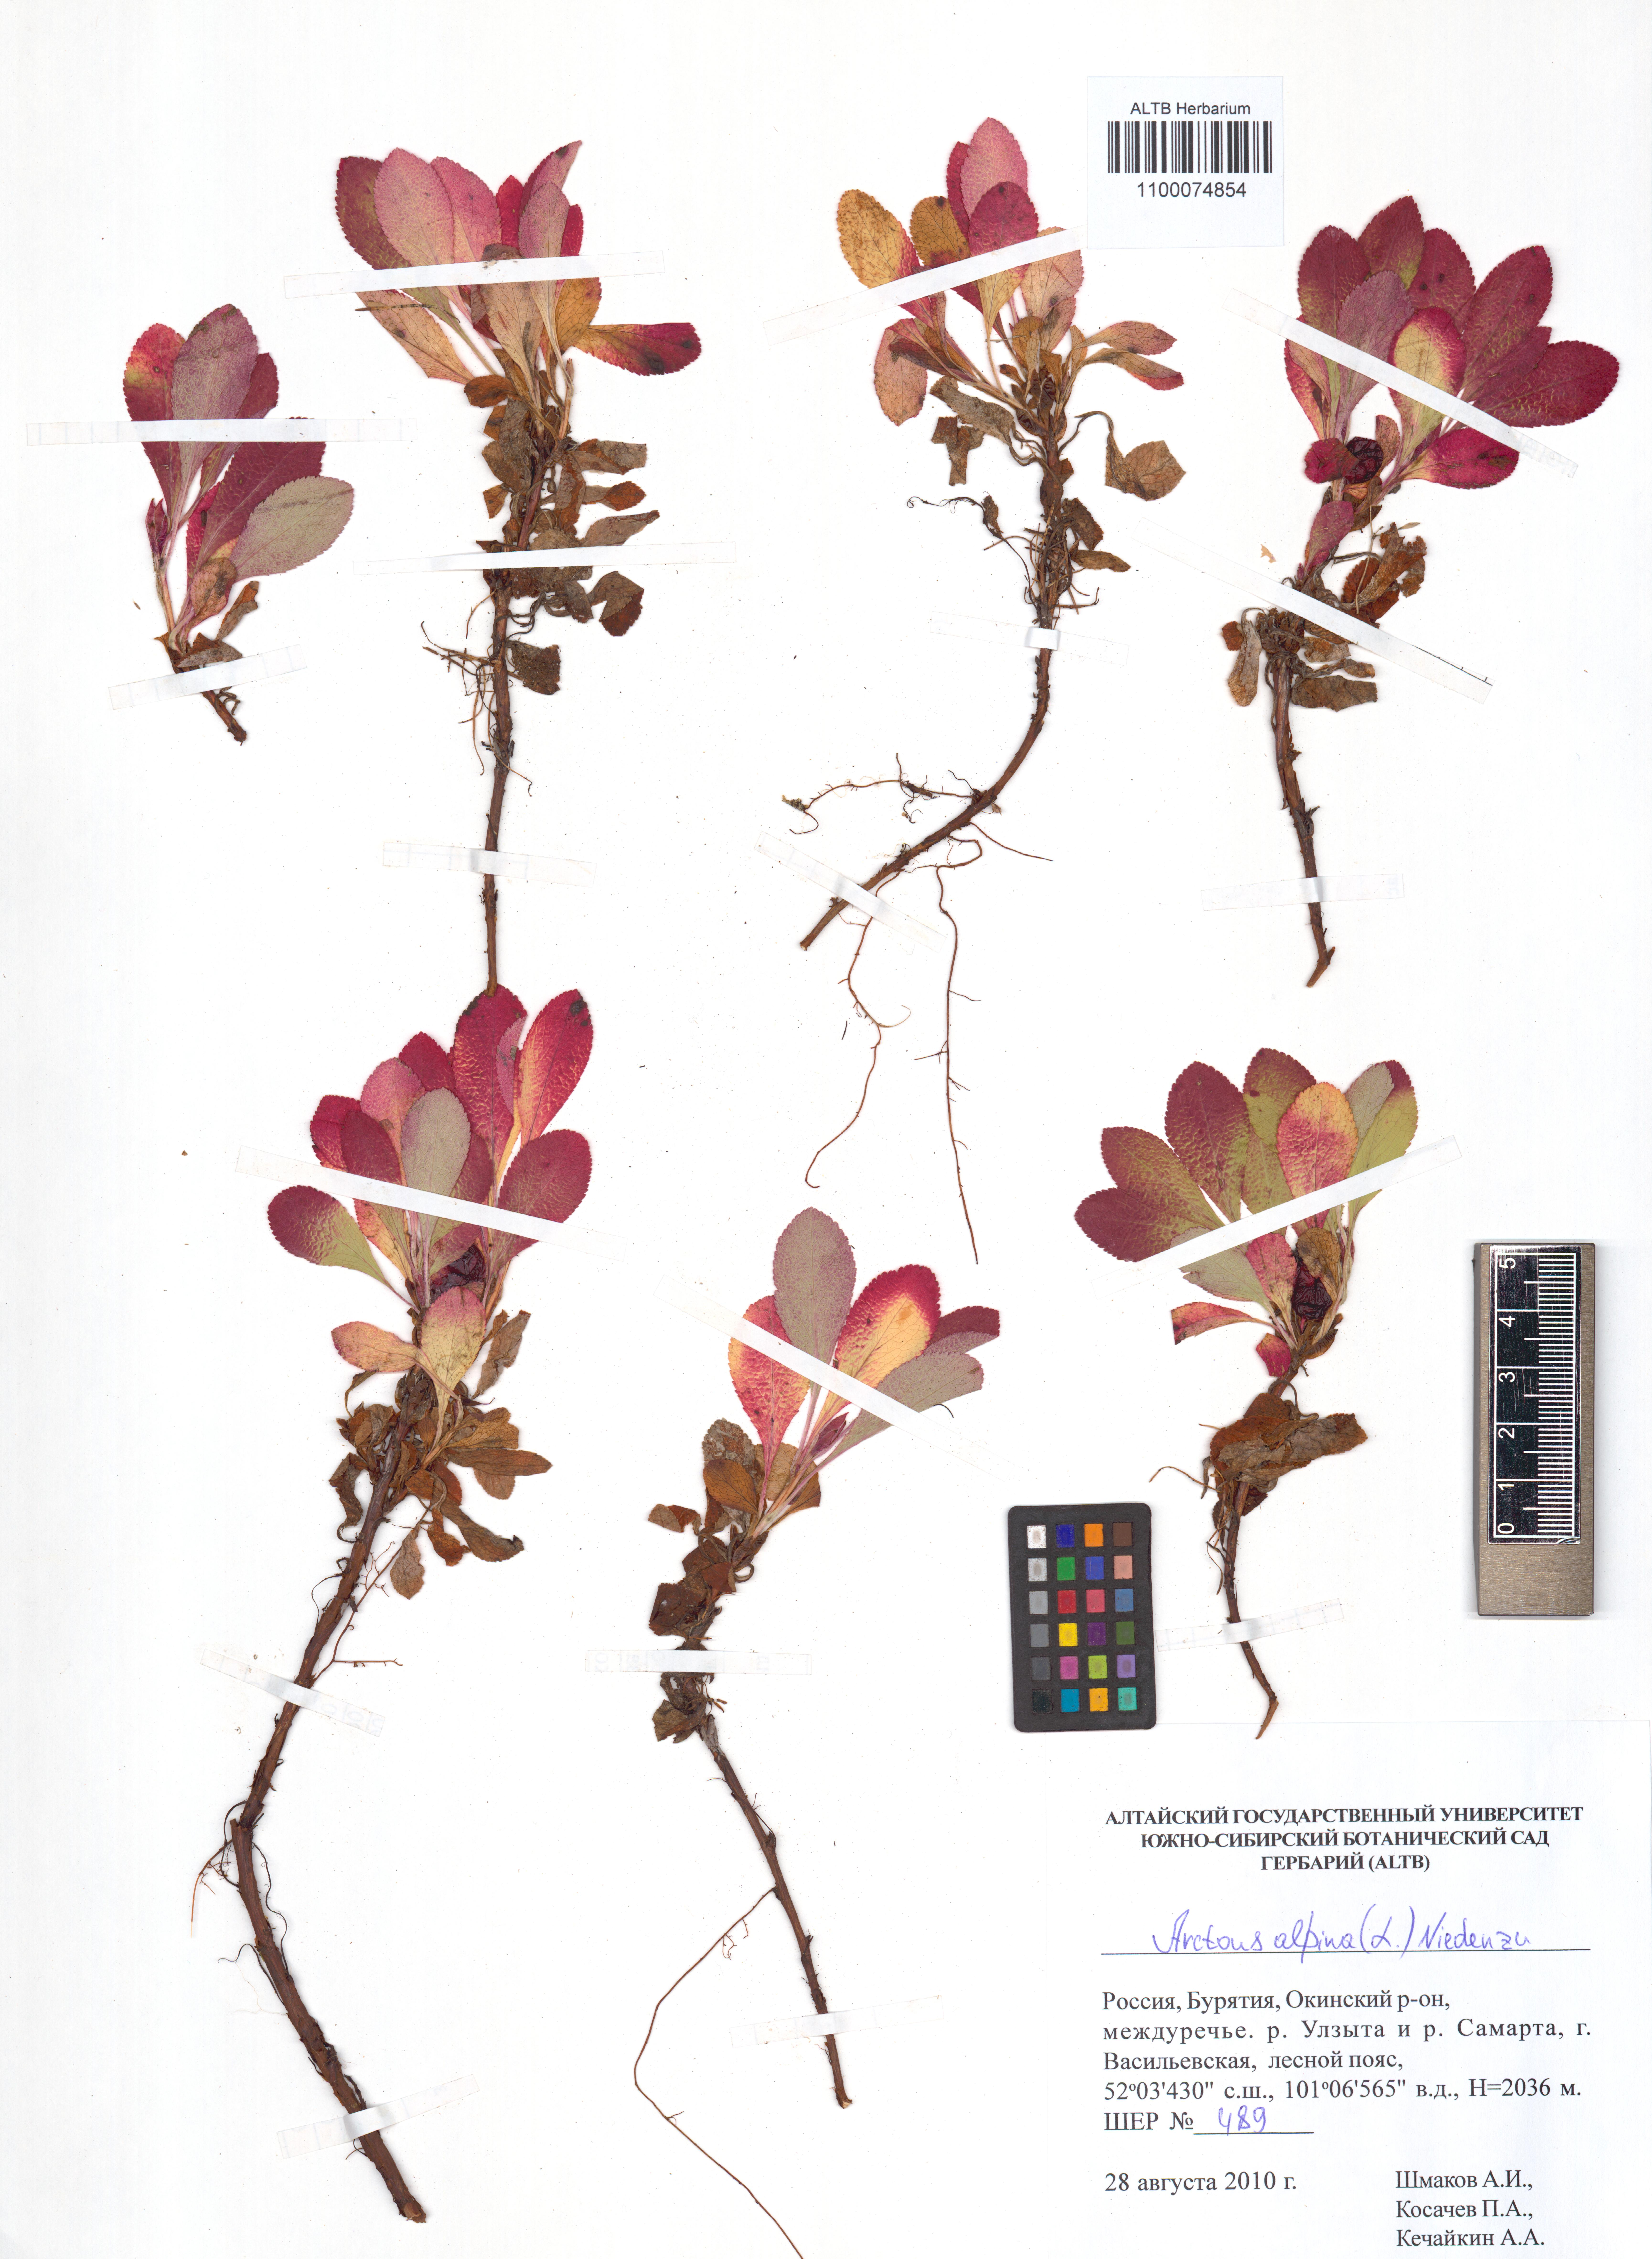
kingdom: Plantae
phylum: Tracheophyta
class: Magnoliopsida
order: Ericales
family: Ericaceae
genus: Arctostaphylos
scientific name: Arctostaphylos alpinus
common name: Alpine bearberry
